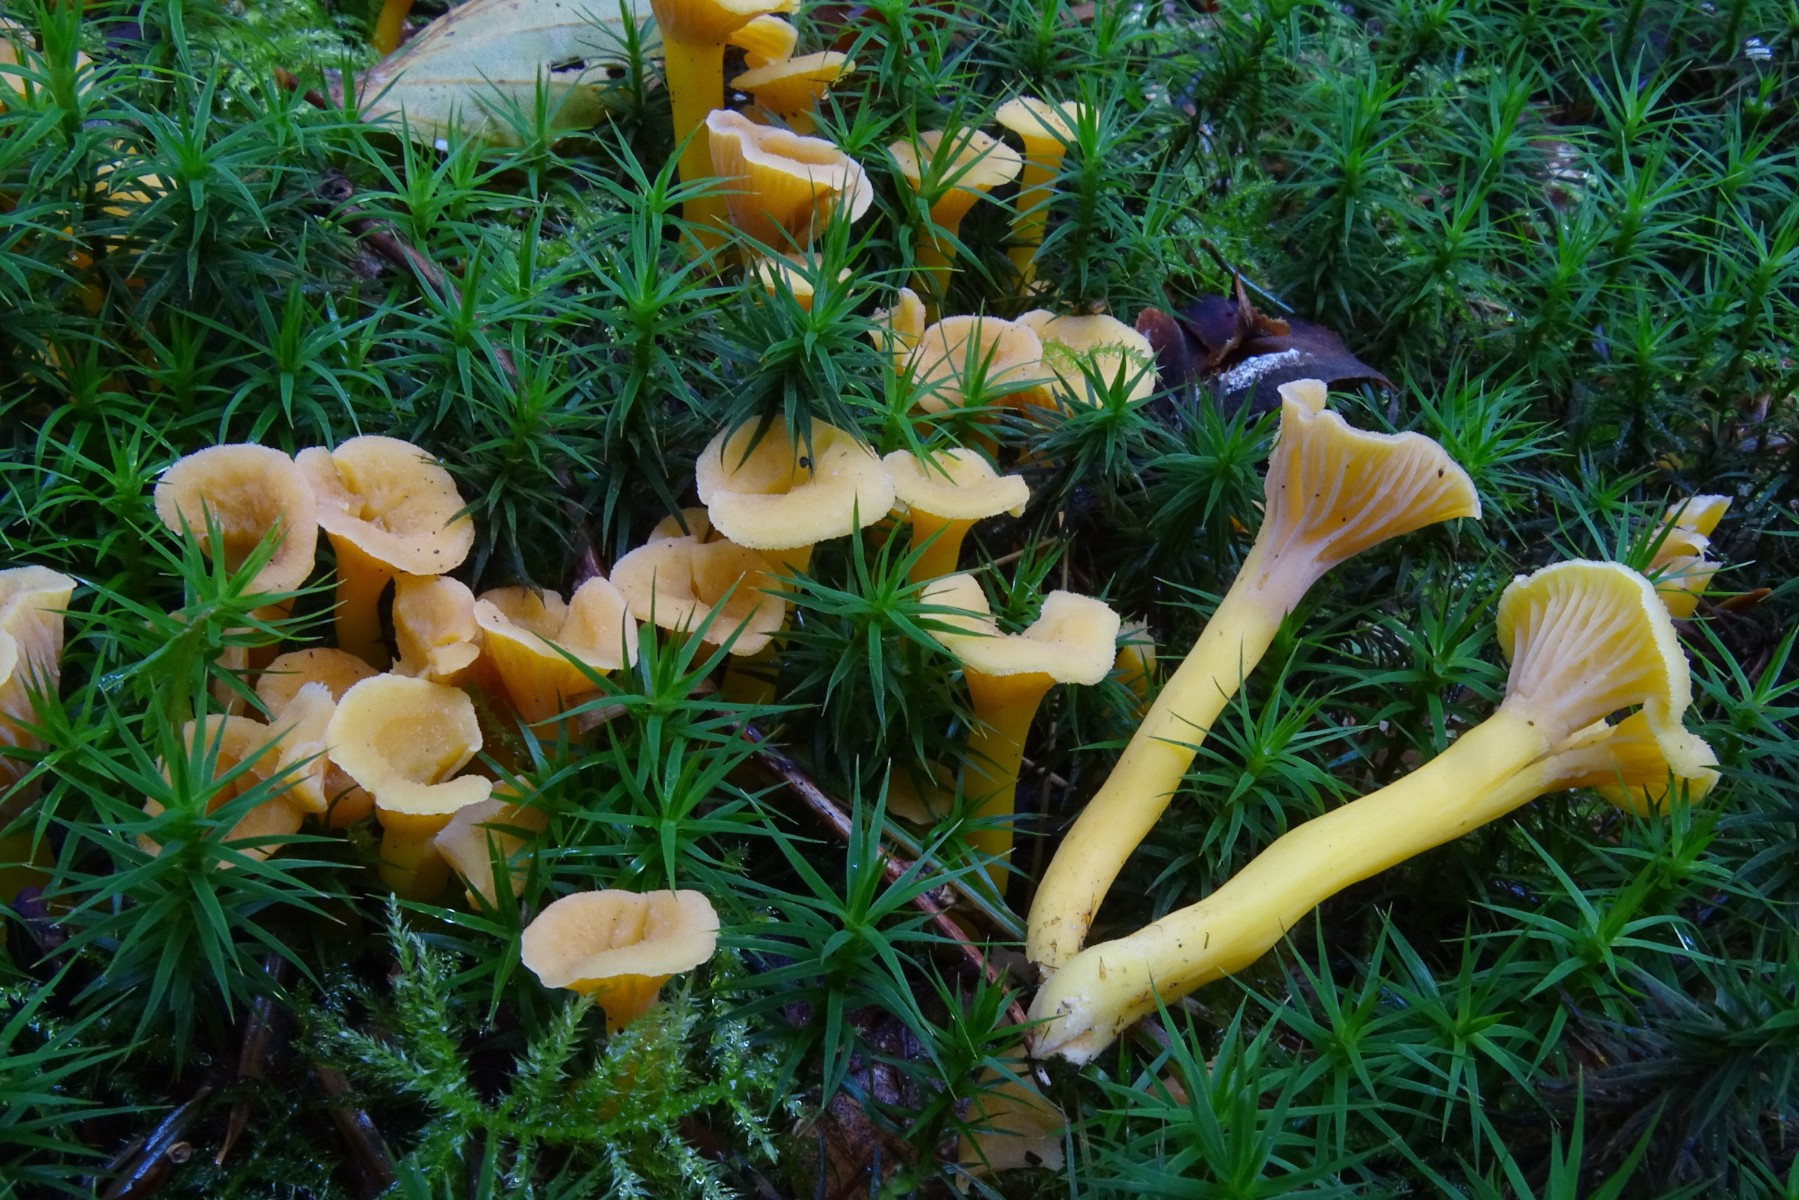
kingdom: Fungi
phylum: Basidiomycota
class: Agaricomycetes
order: Cantharellales
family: Hydnaceae
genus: Craterellus
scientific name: Craterellus tubaeformis
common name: tragt-kantarel
